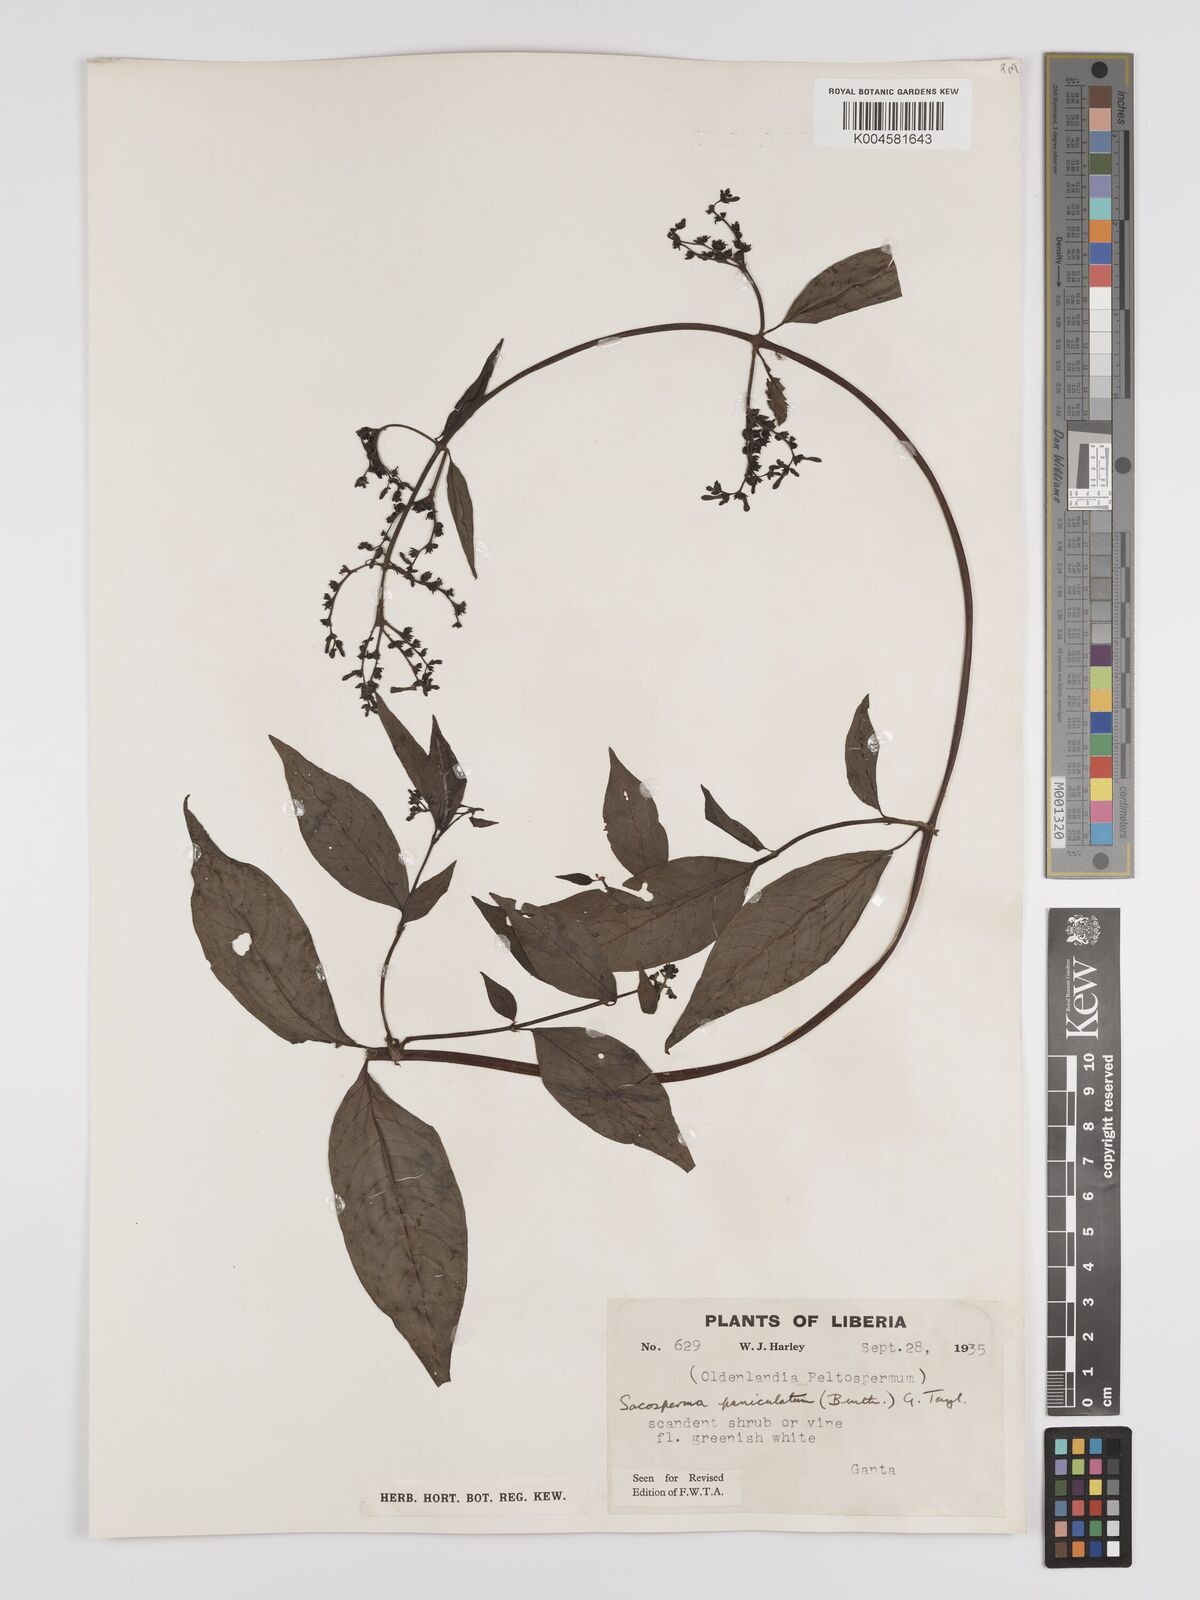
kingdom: Plantae
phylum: Tracheophyta
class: Magnoliopsida
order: Gentianales
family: Rubiaceae
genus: Sacosperma
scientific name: Sacosperma paniculatum
